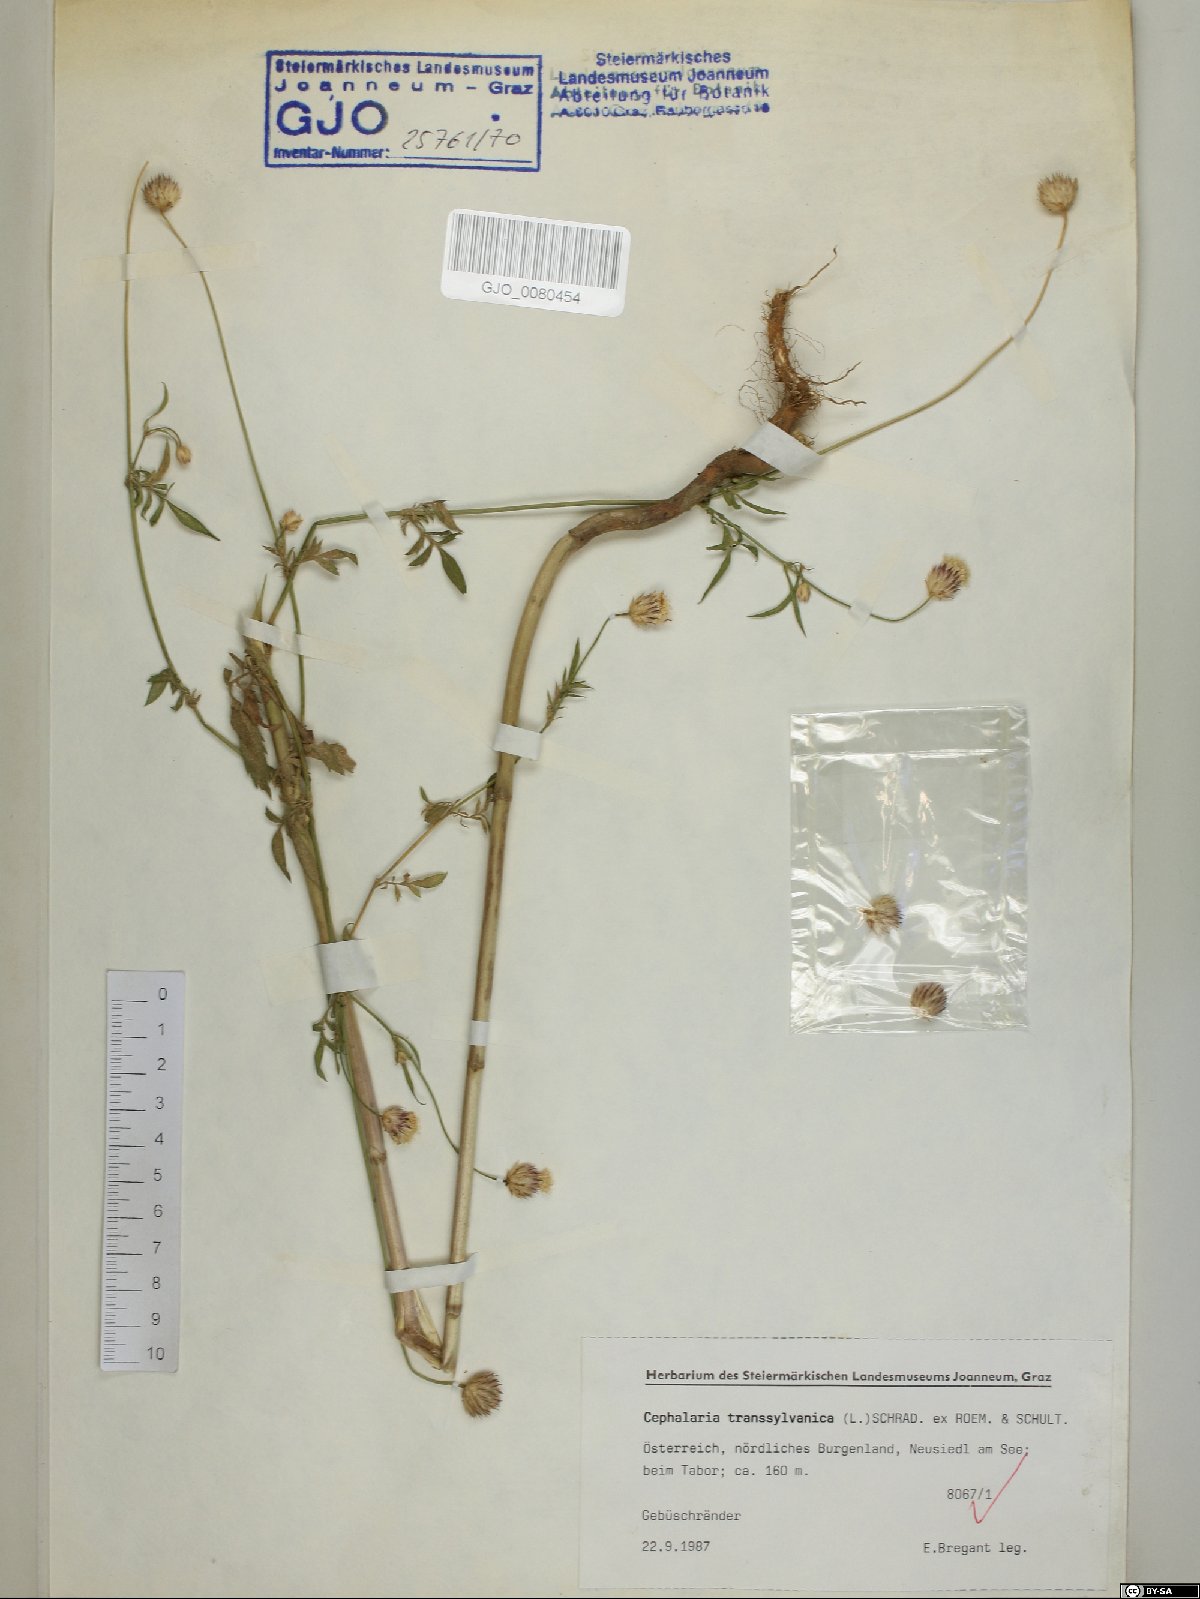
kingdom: Plantae
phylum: Tracheophyta
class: Magnoliopsida
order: Dipsacales
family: Caprifoliaceae
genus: Cephalaria
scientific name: Cephalaria transsylvanica
